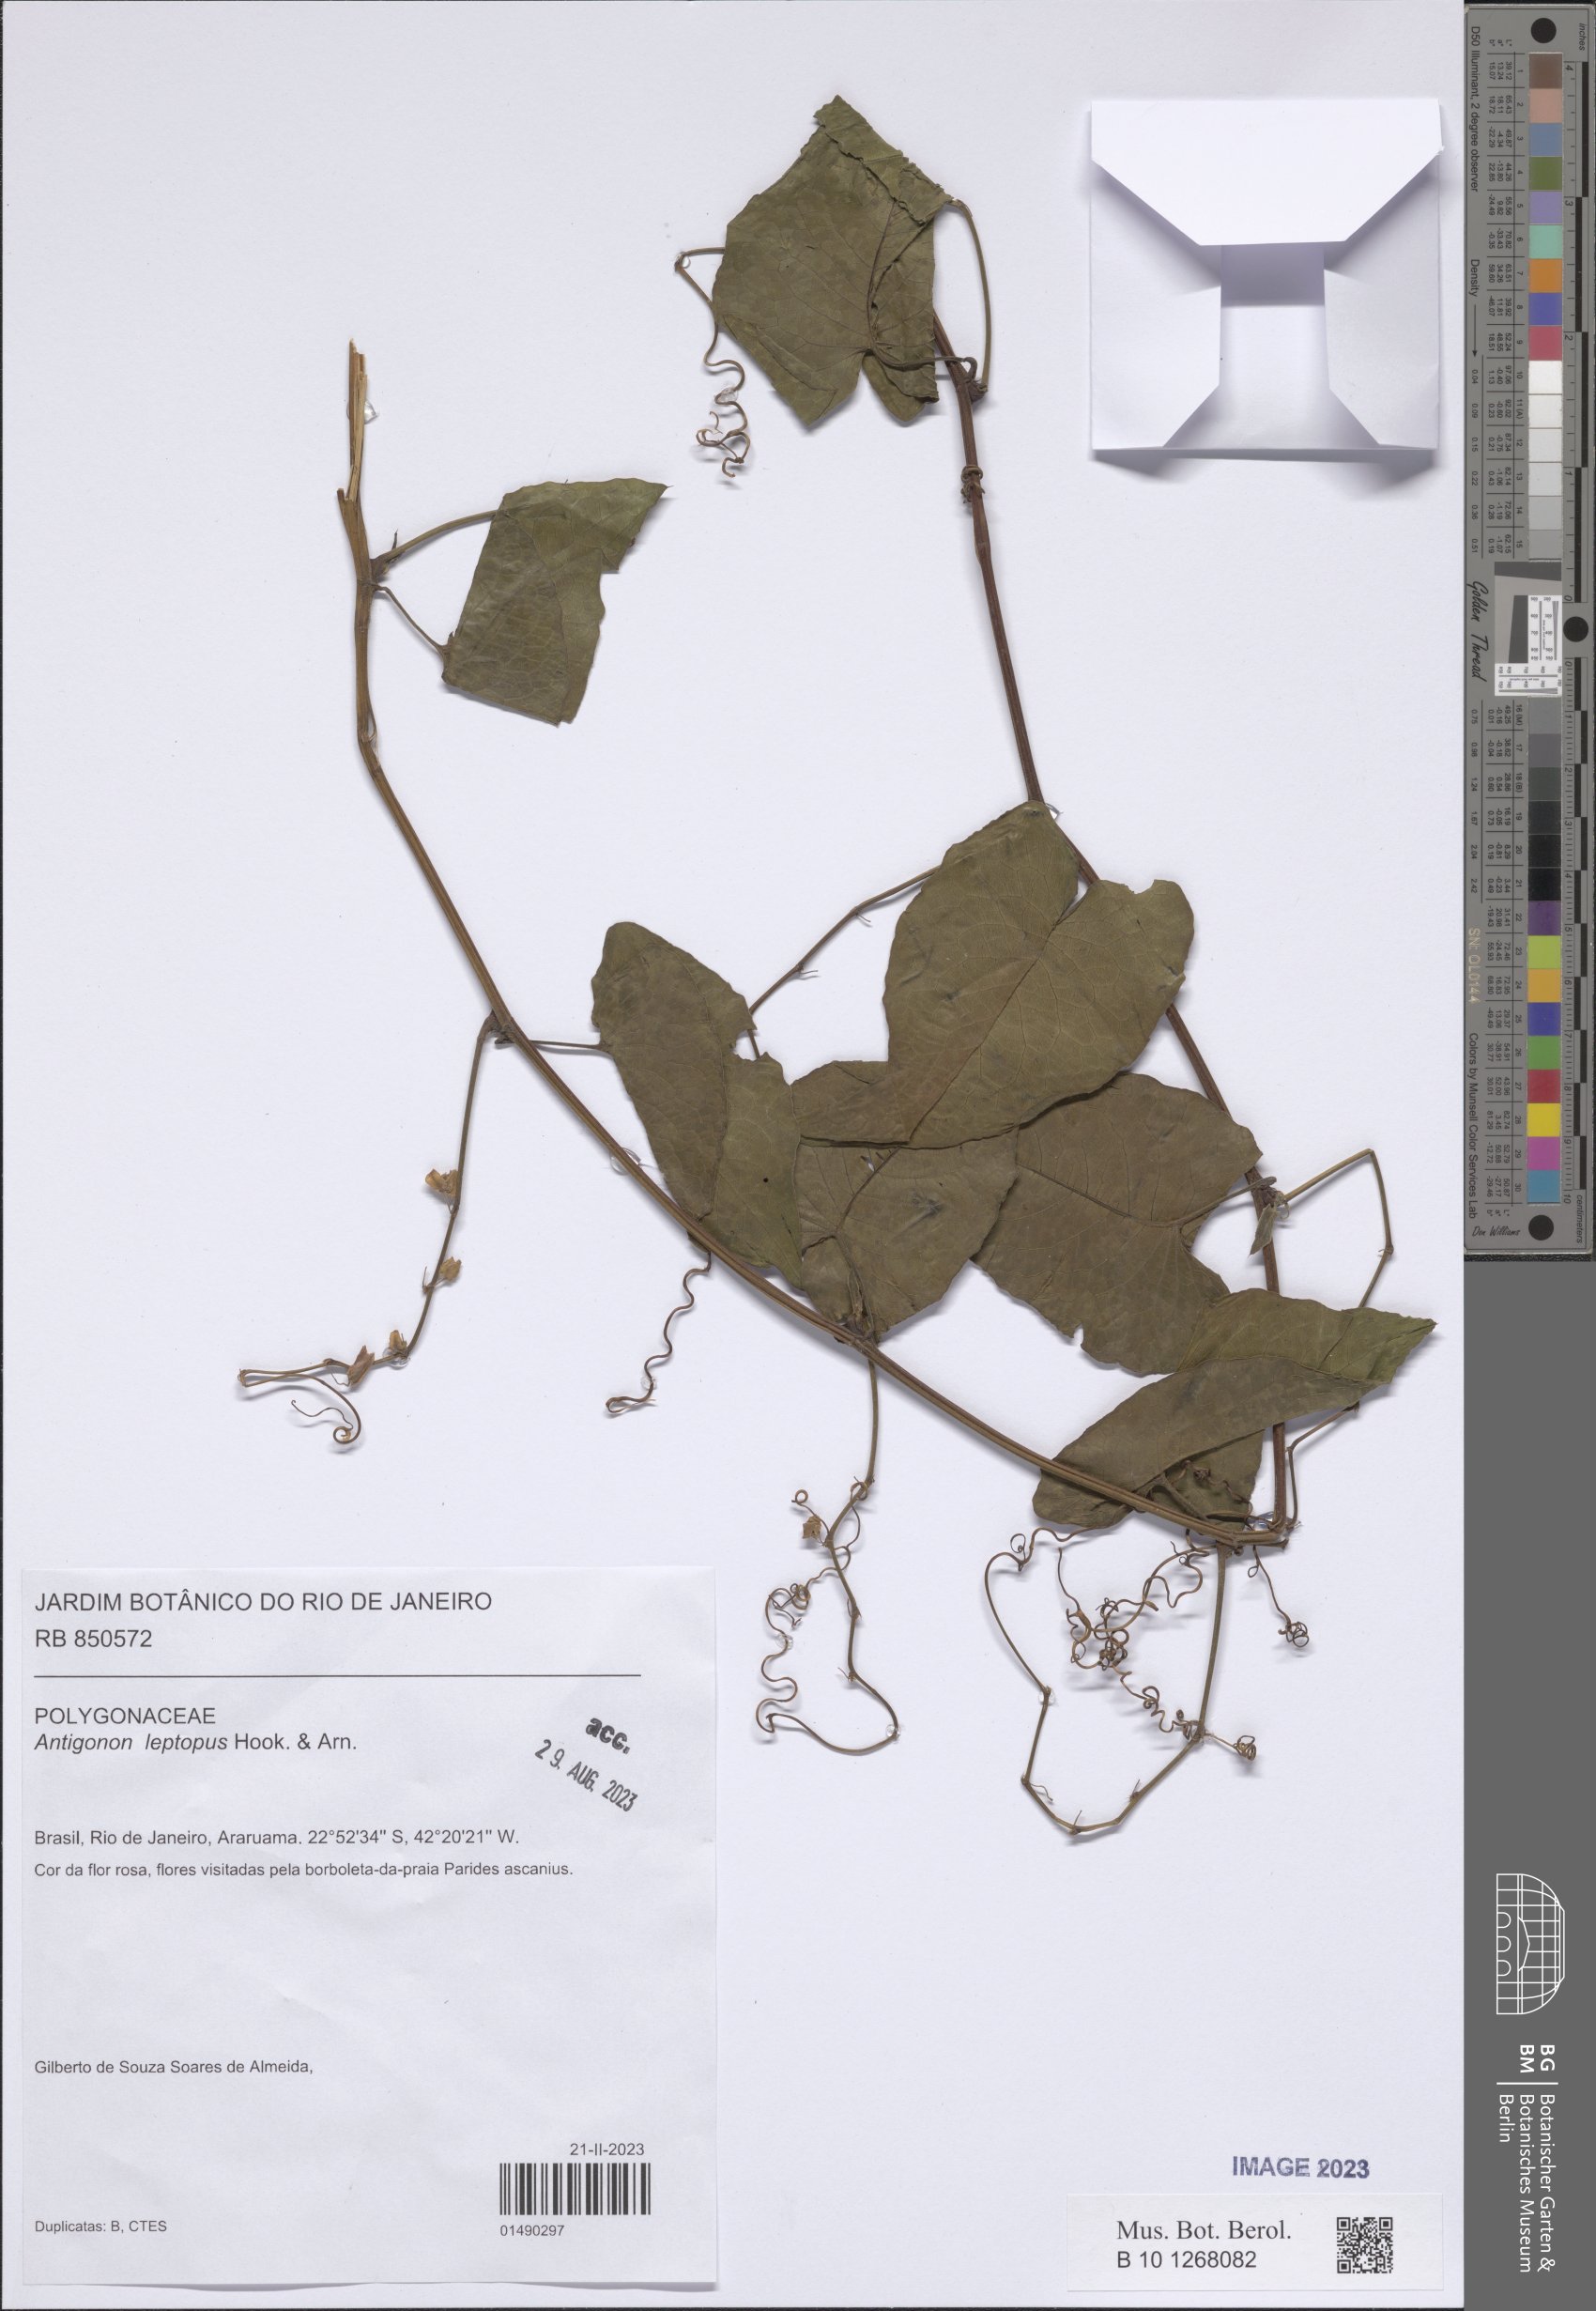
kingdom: Plantae
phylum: Tracheophyta
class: Magnoliopsida
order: Caryophyllales
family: Polygonaceae
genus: Antigonon
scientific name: Antigonon leptopus
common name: Coral vine
